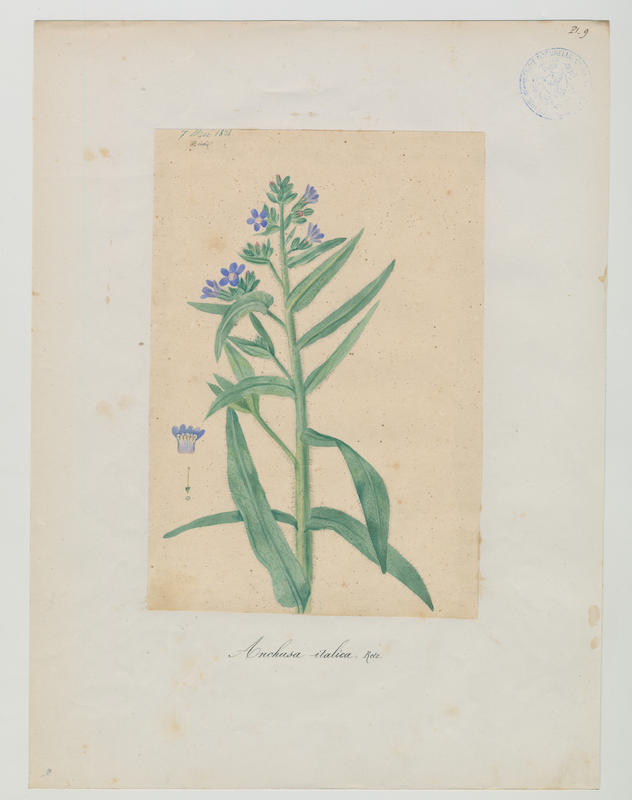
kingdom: Plantae
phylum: Tracheophyta
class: Magnoliopsida
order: Boraginales
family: Boraginaceae
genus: Anchusa
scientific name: Anchusa azurea
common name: Garden anchusa
